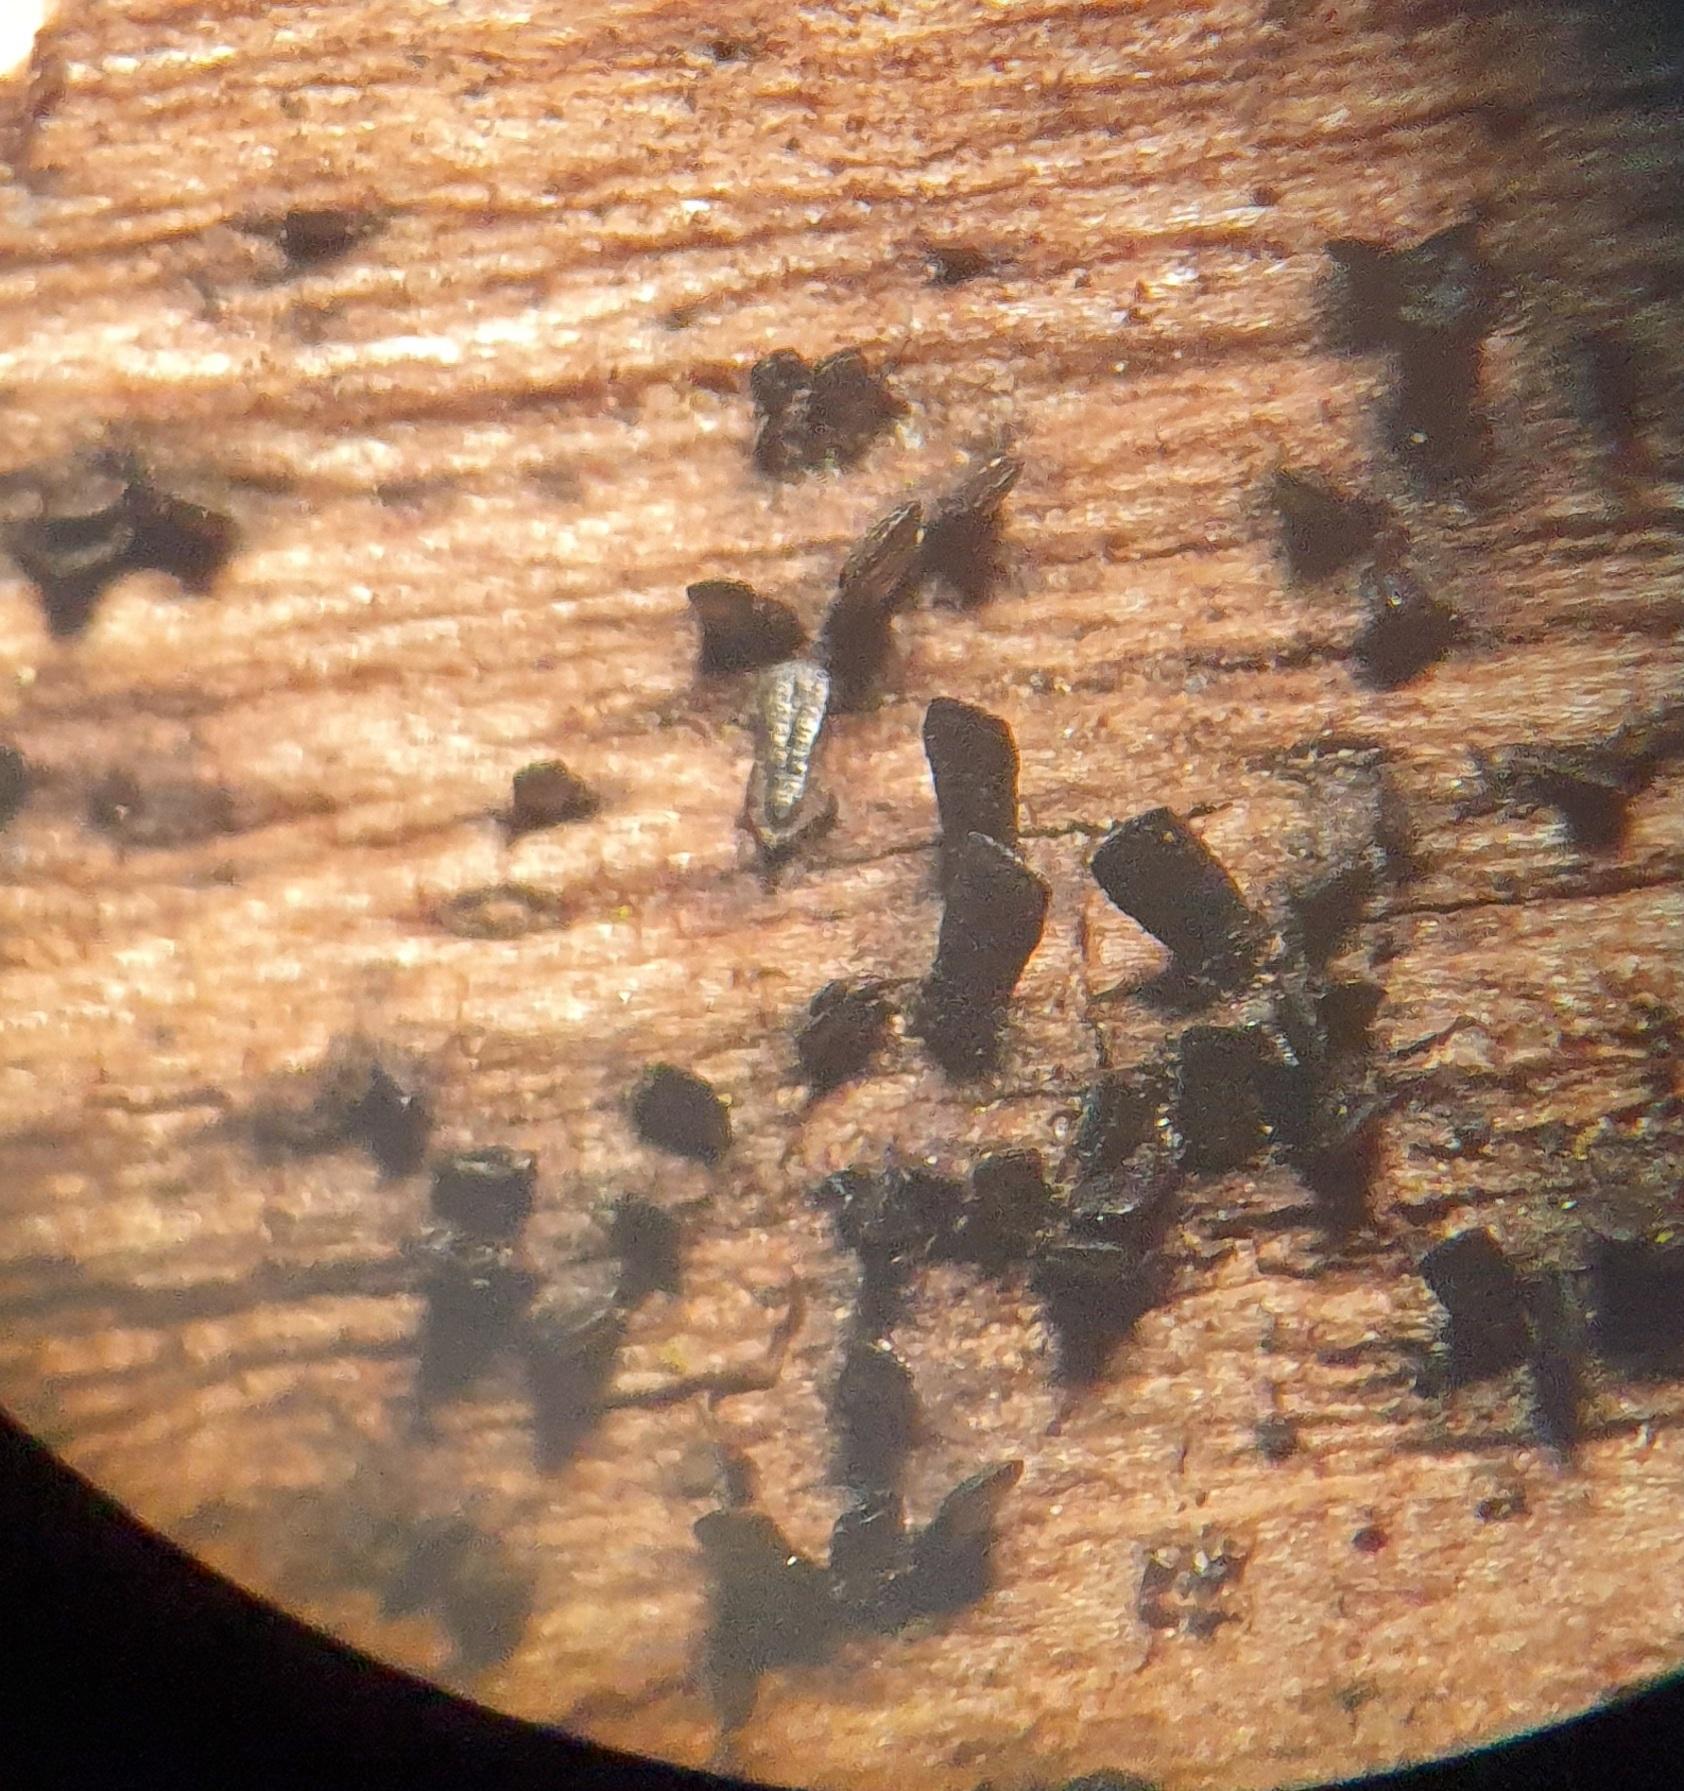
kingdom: Fungi
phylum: Ascomycota
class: Eurotiomycetes
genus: Glyphium
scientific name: Glyphium elatum
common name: kuløkse
